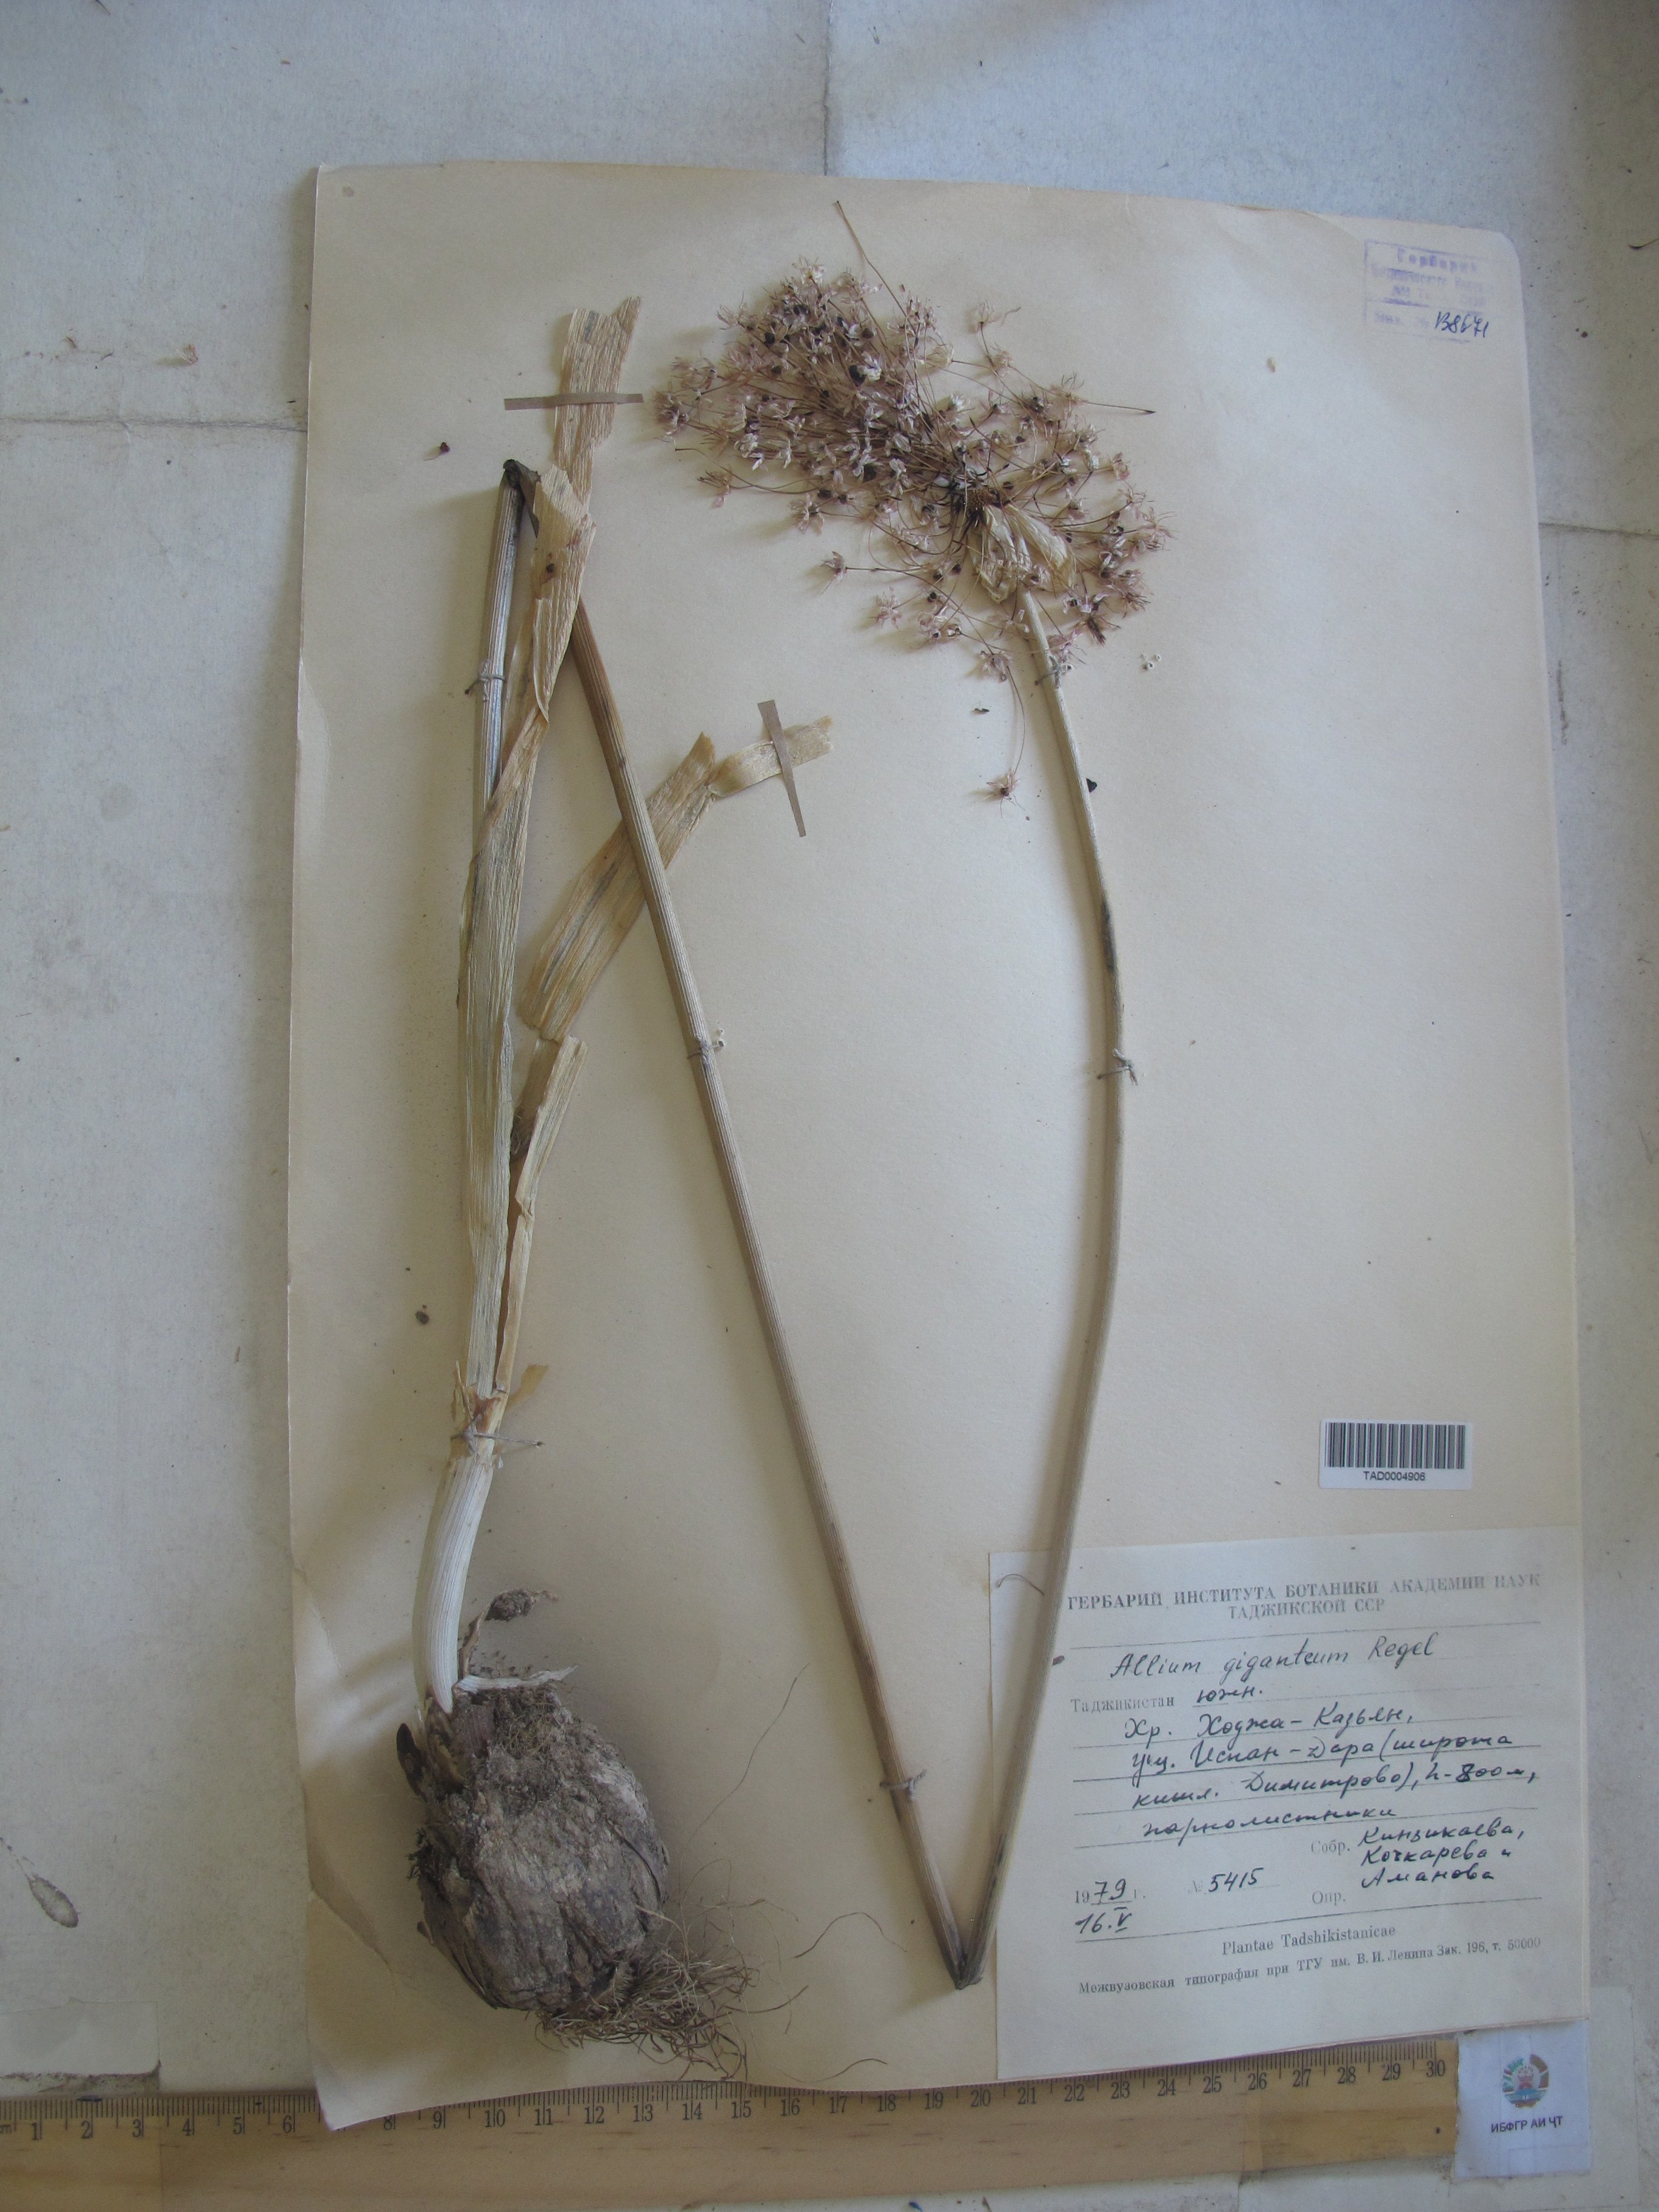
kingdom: Plantae
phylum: Tracheophyta
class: Liliopsida
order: Asparagales
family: Amaryllidaceae
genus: Allium
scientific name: Allium giganteum
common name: Giant onion
